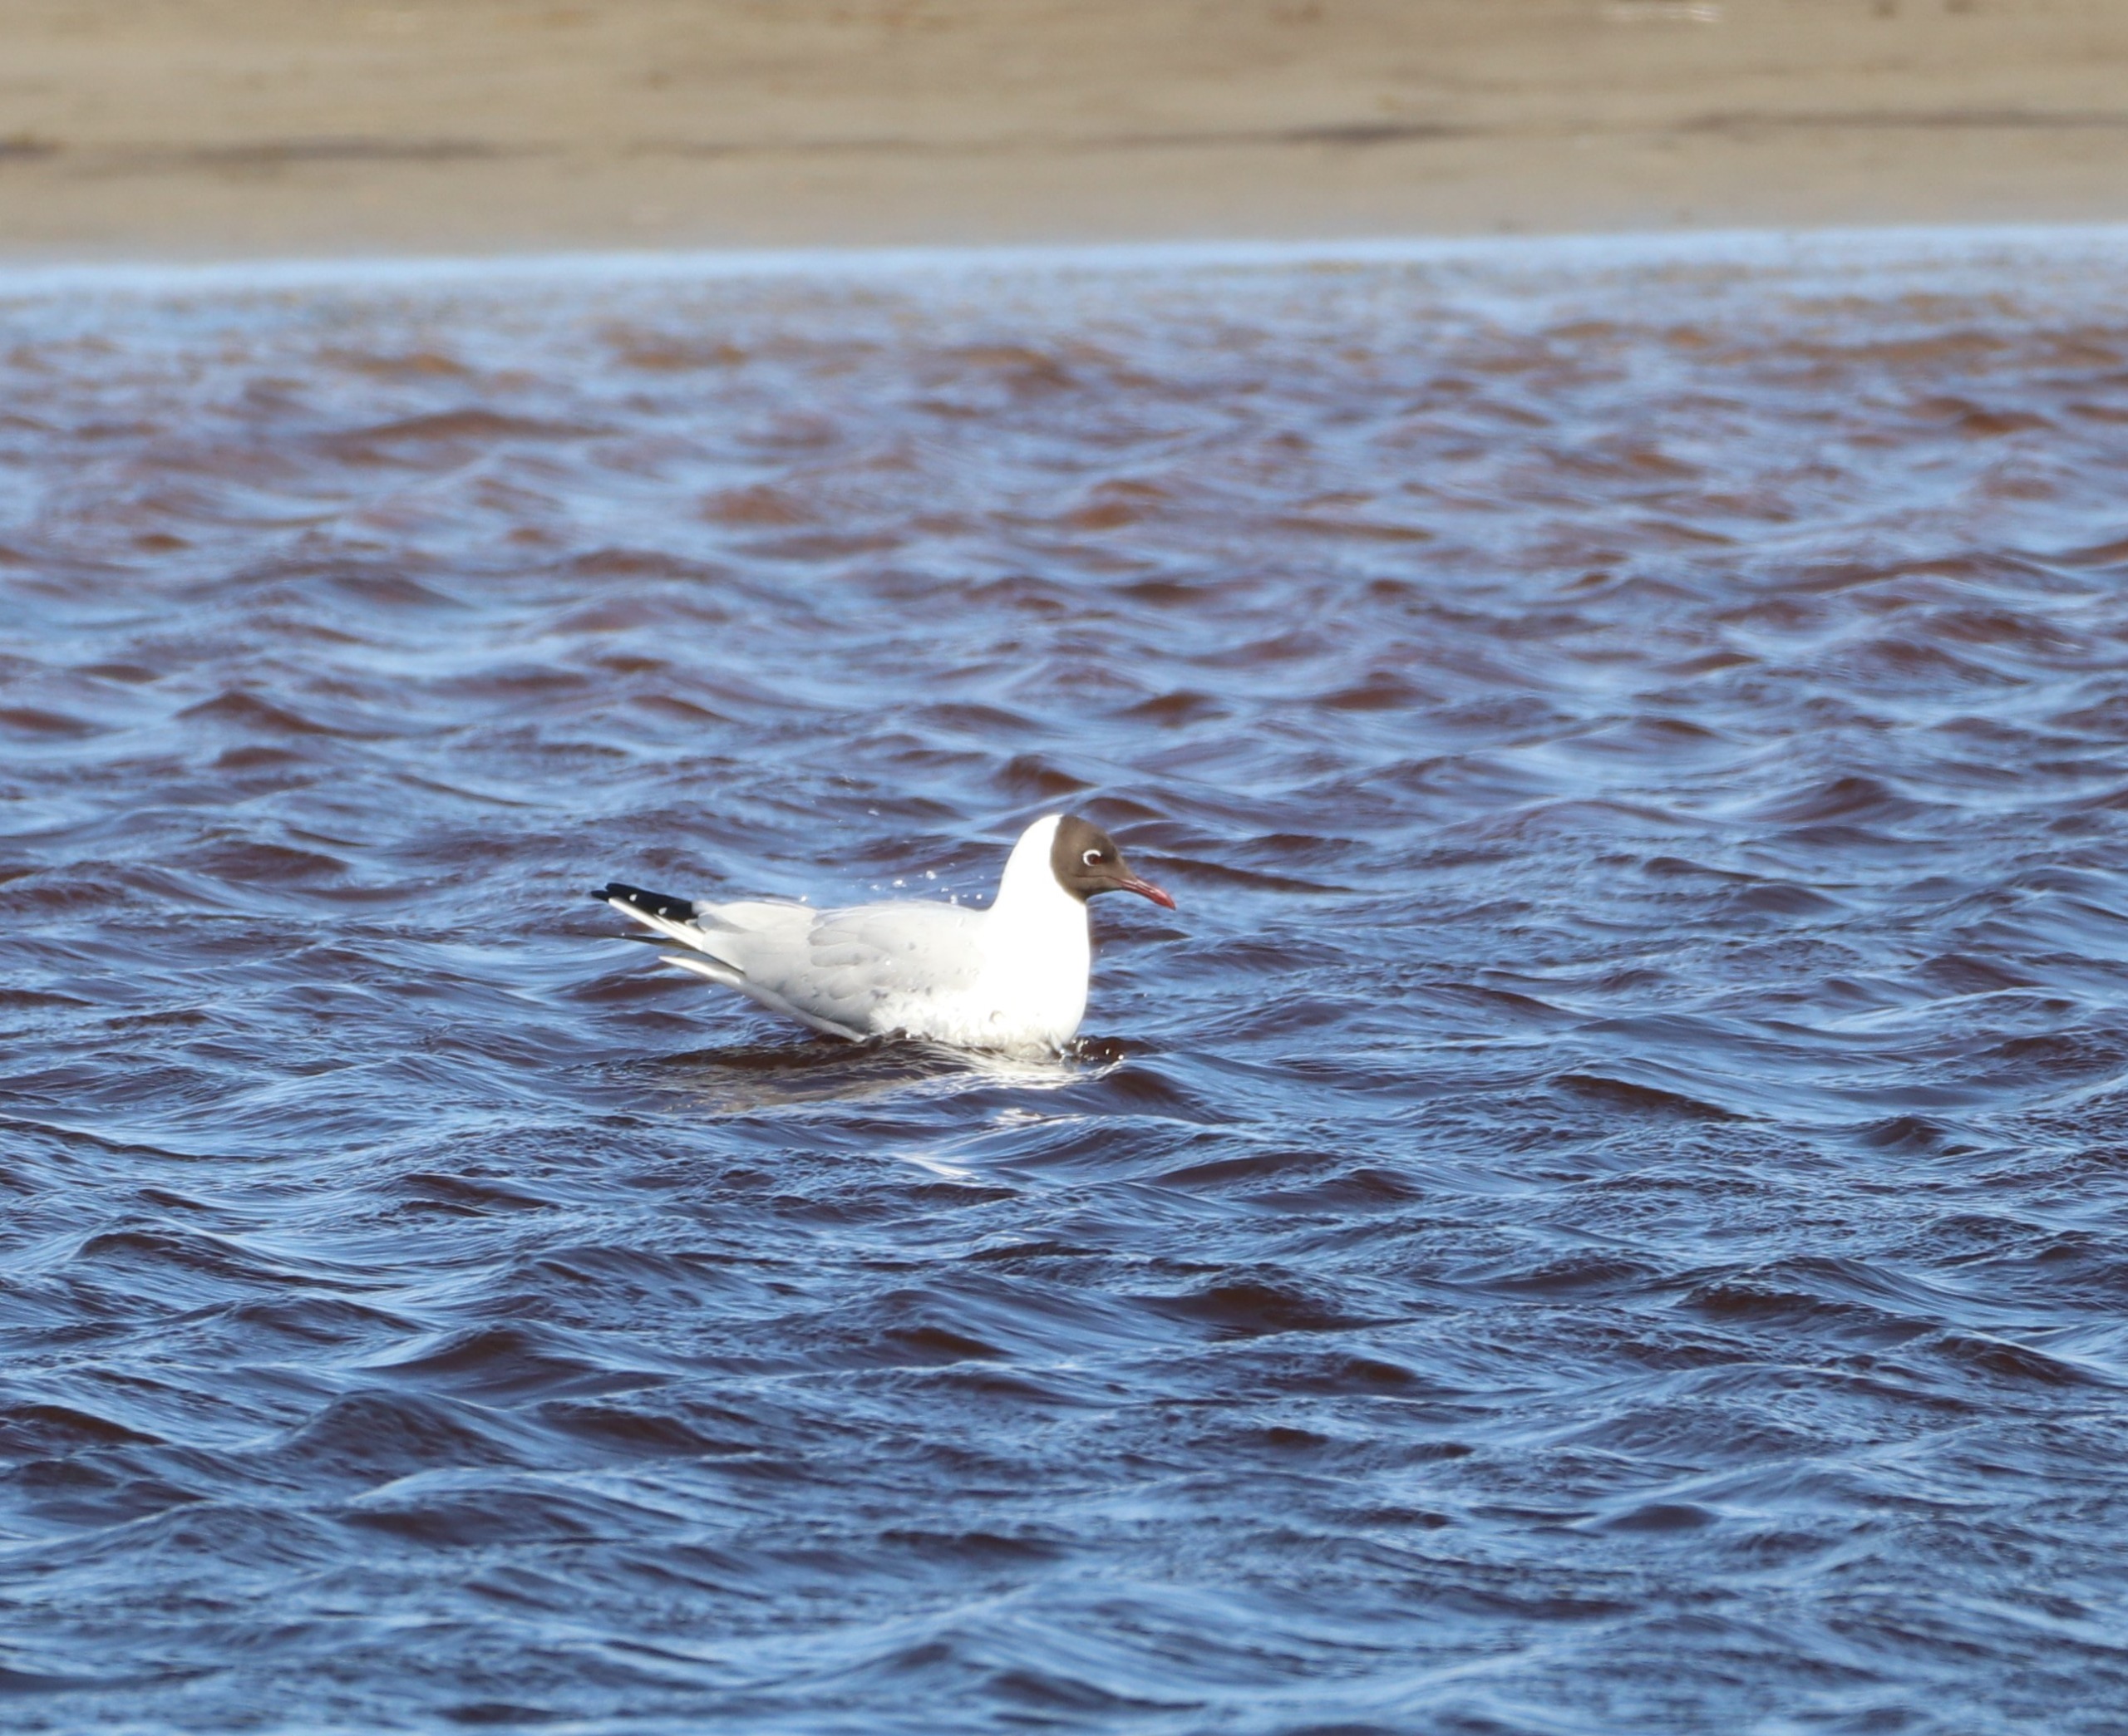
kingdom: Animalia
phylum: Chordata
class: Aves
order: Charadriiformes
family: Laridae
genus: Chroicocephalus
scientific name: Chroicocephalus ridibundus
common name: Hættemåge
